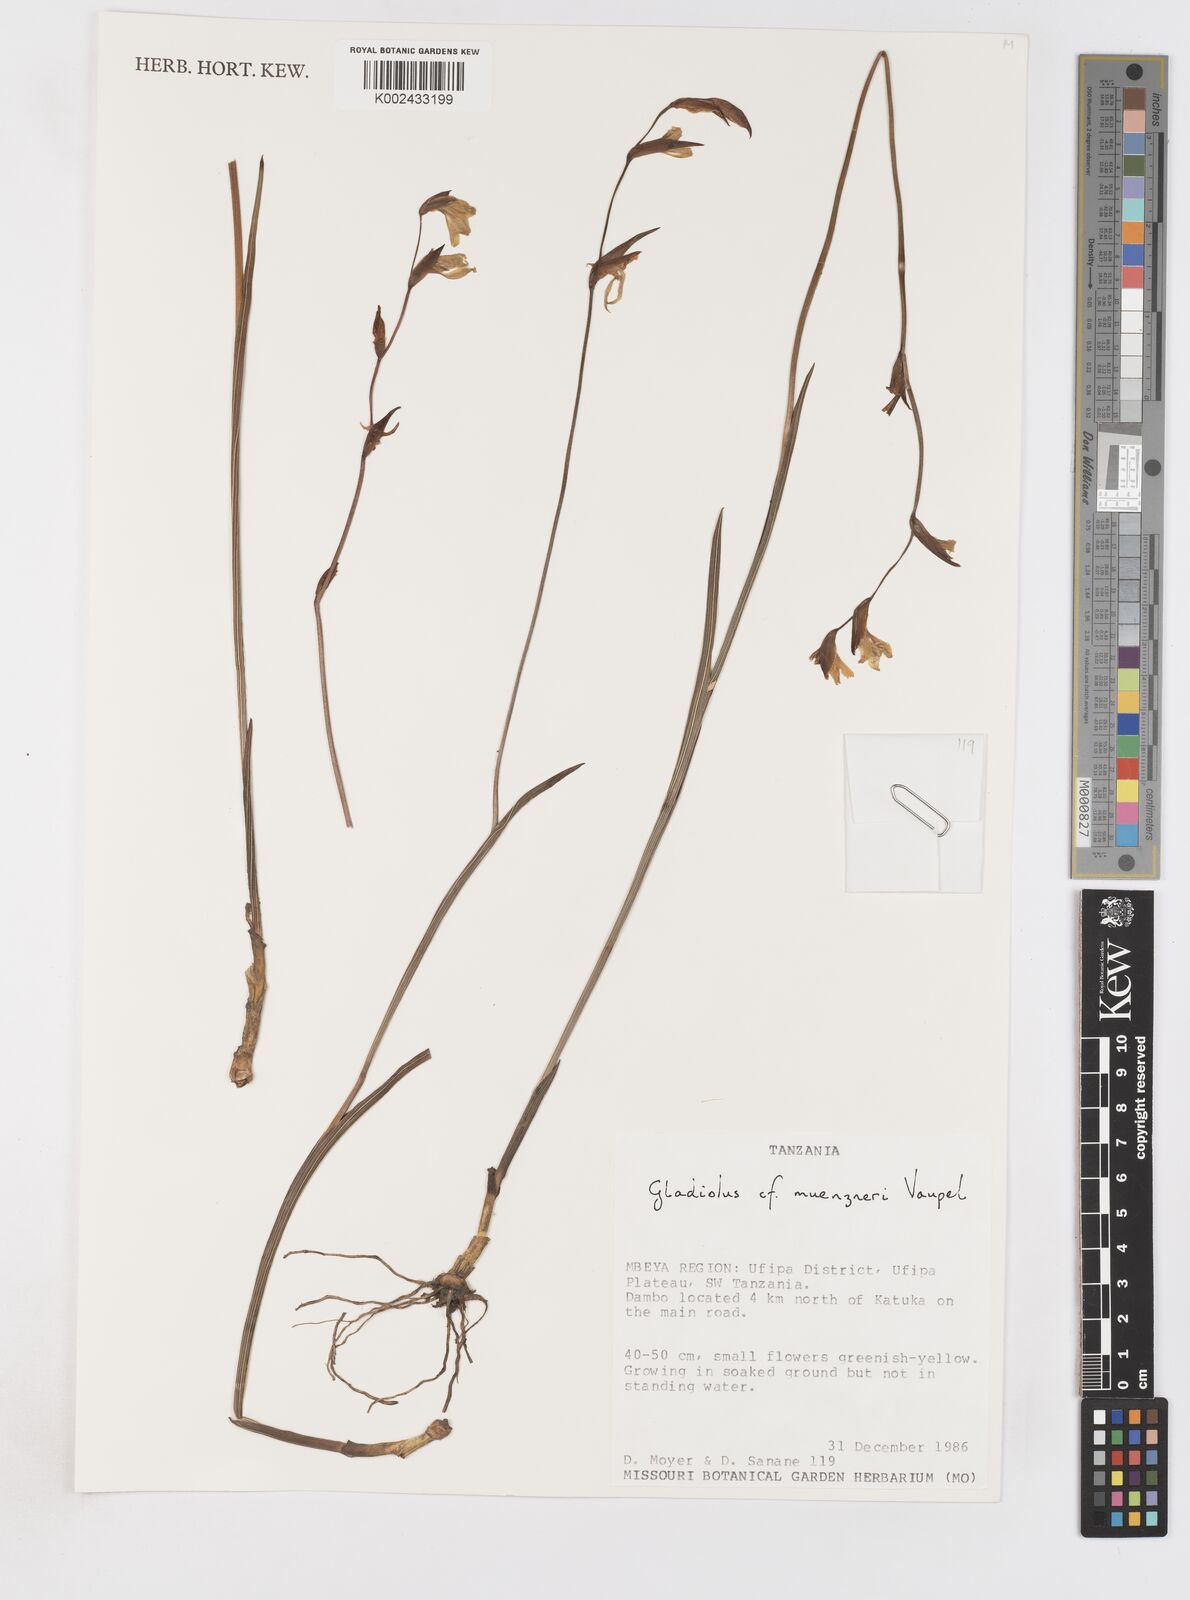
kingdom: Plantae
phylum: Tracheophyta
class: Liliopsida
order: Asparagales
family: Iridaceae
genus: Gladiolus
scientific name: Gladiolus muenzneri
